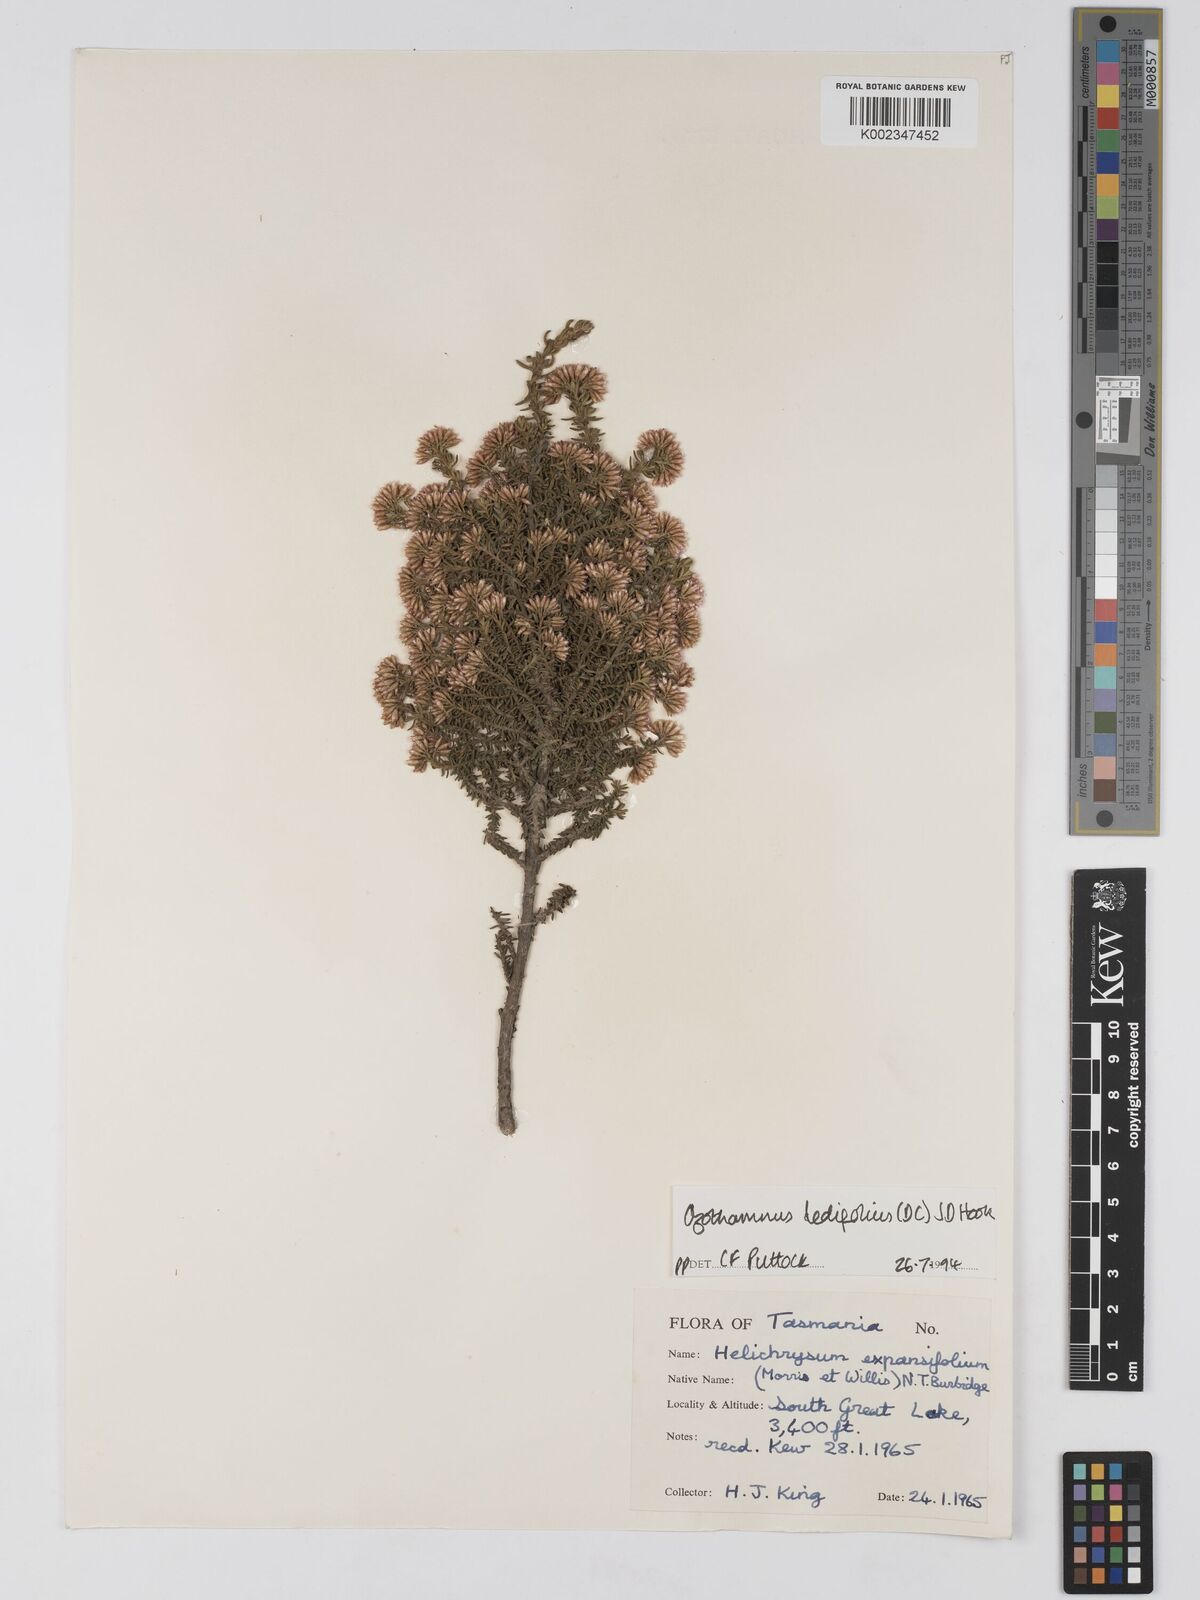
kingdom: Plantae
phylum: Tracheophyta
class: Magnoliopsida
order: Asterales
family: Asteraceae
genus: Ozothamnus
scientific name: Ozothamnus ledifolius
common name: Kerosene-weed
